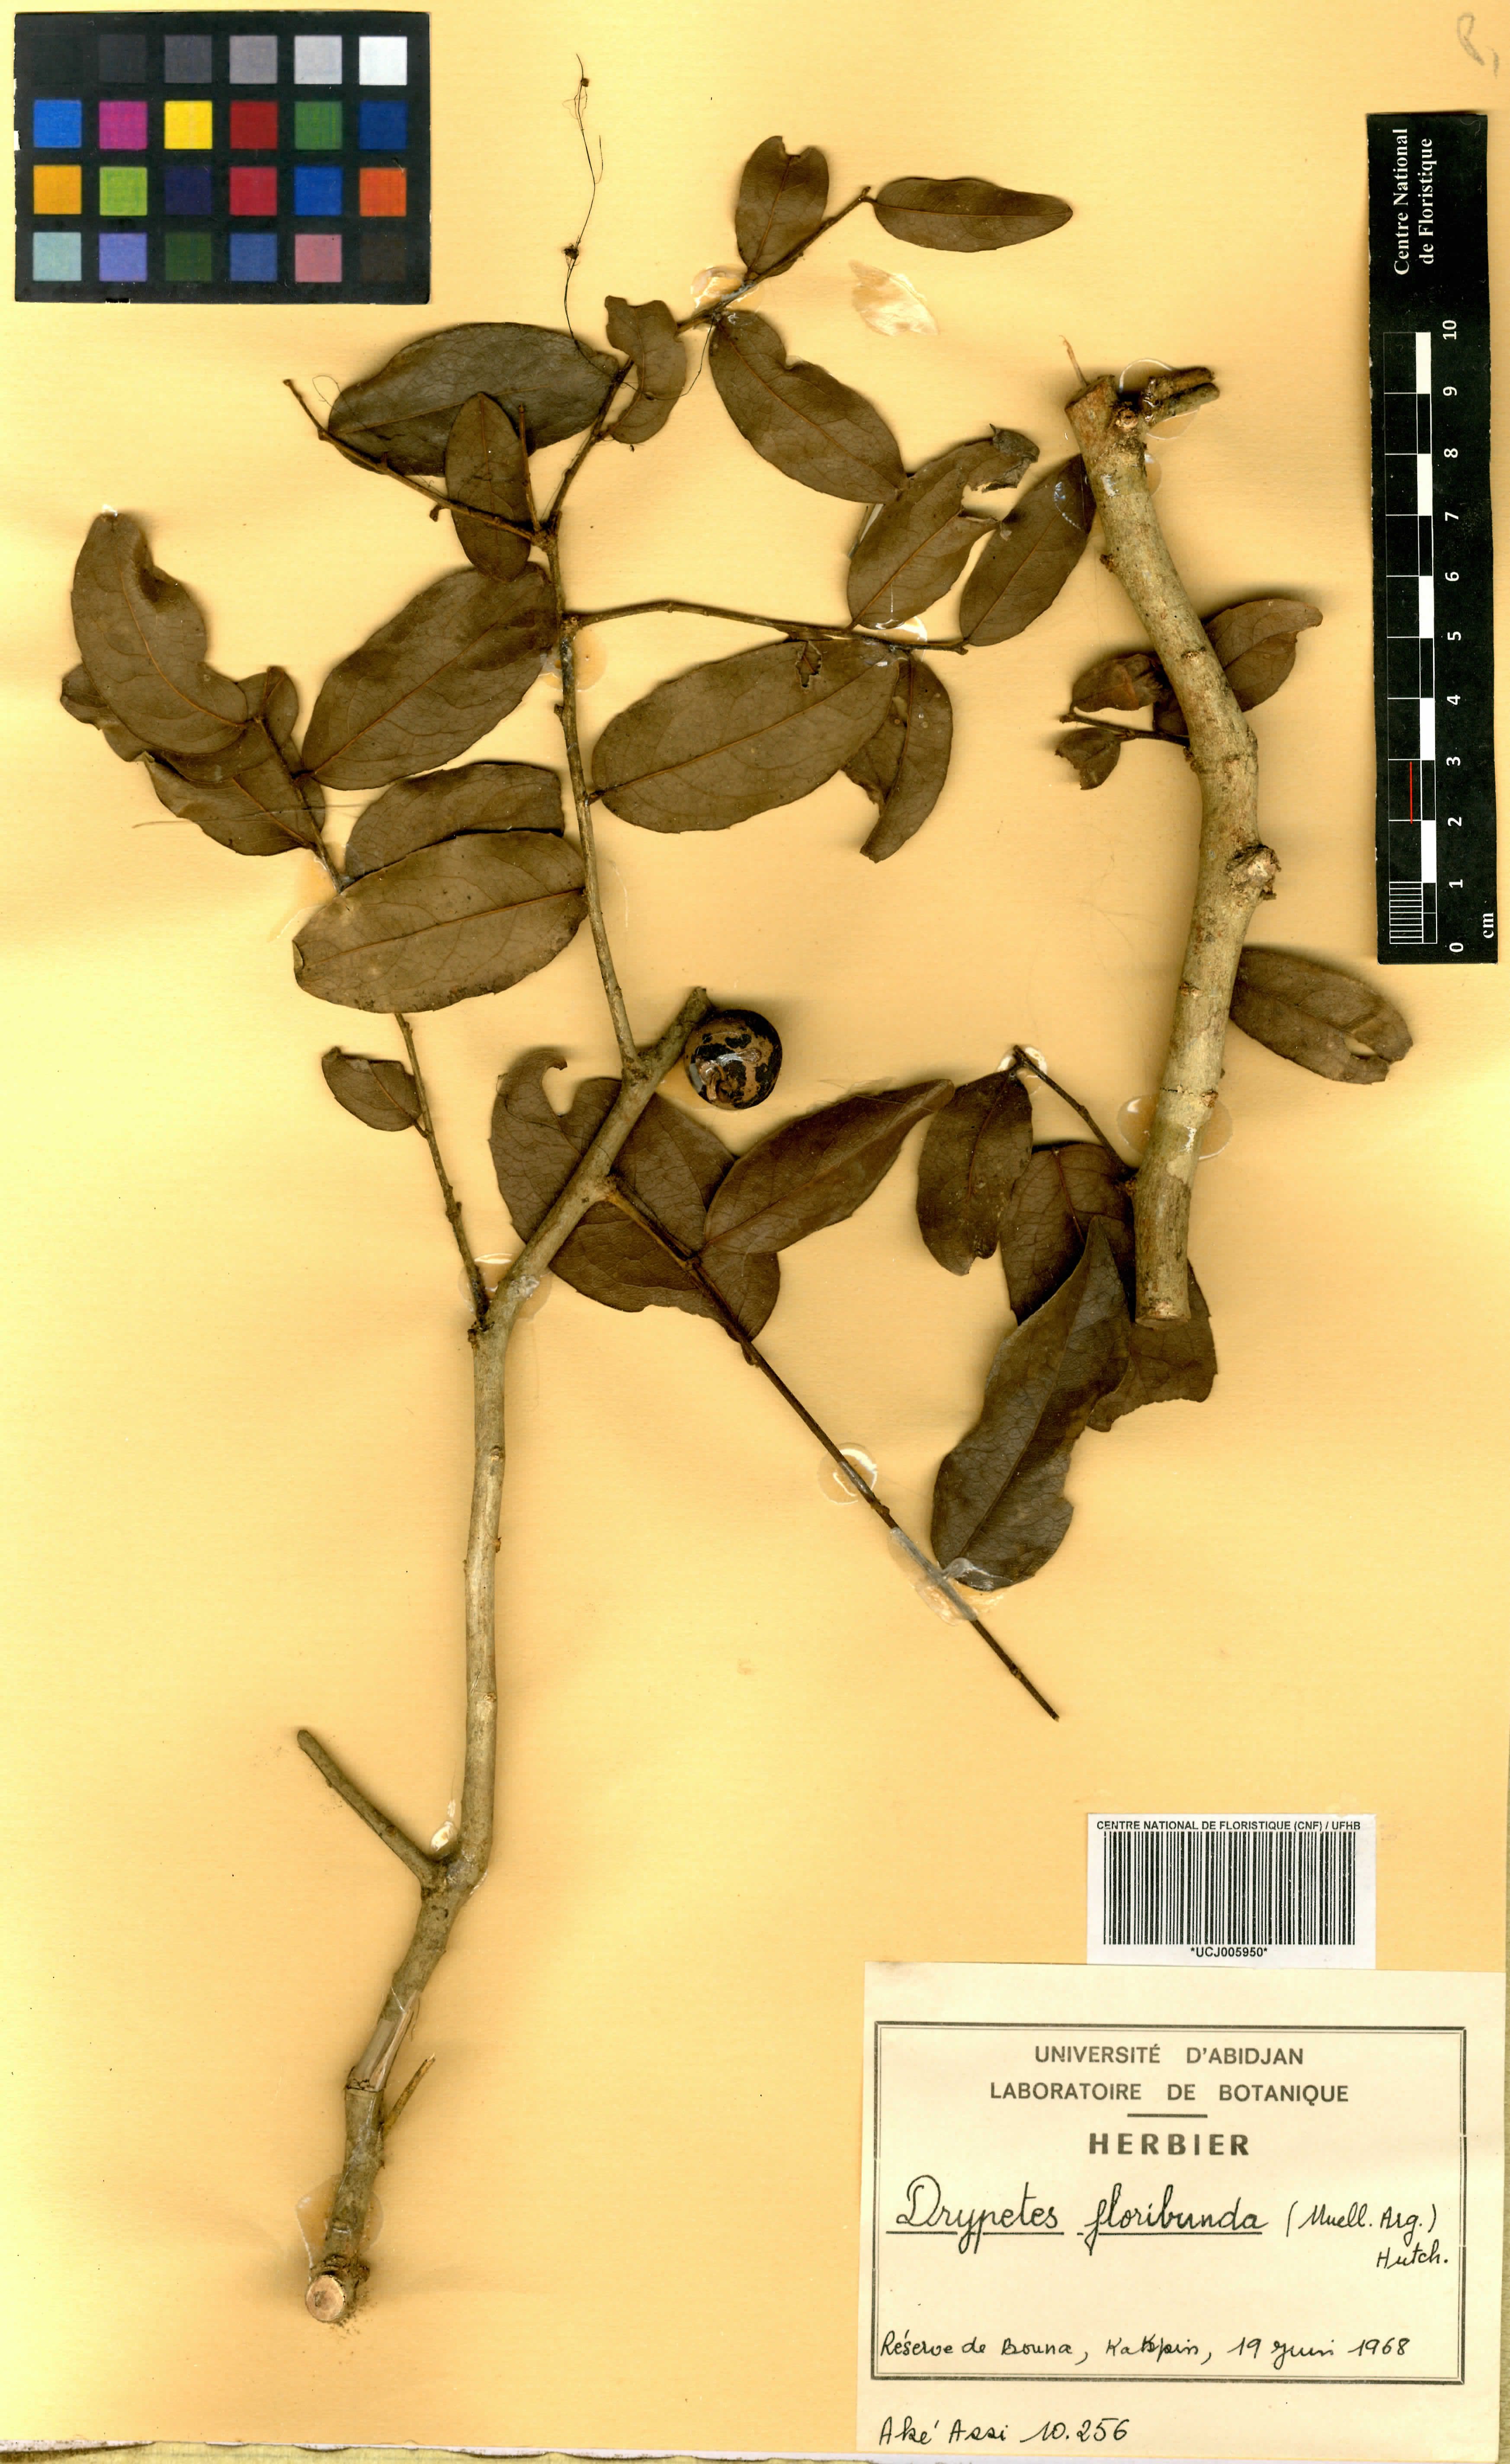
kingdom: Plantae
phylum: Tracheophyta
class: Magnoliopsida
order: Malpighiales
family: Putranjivaceae
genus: Drypetes
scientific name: Drypetes floribunda
